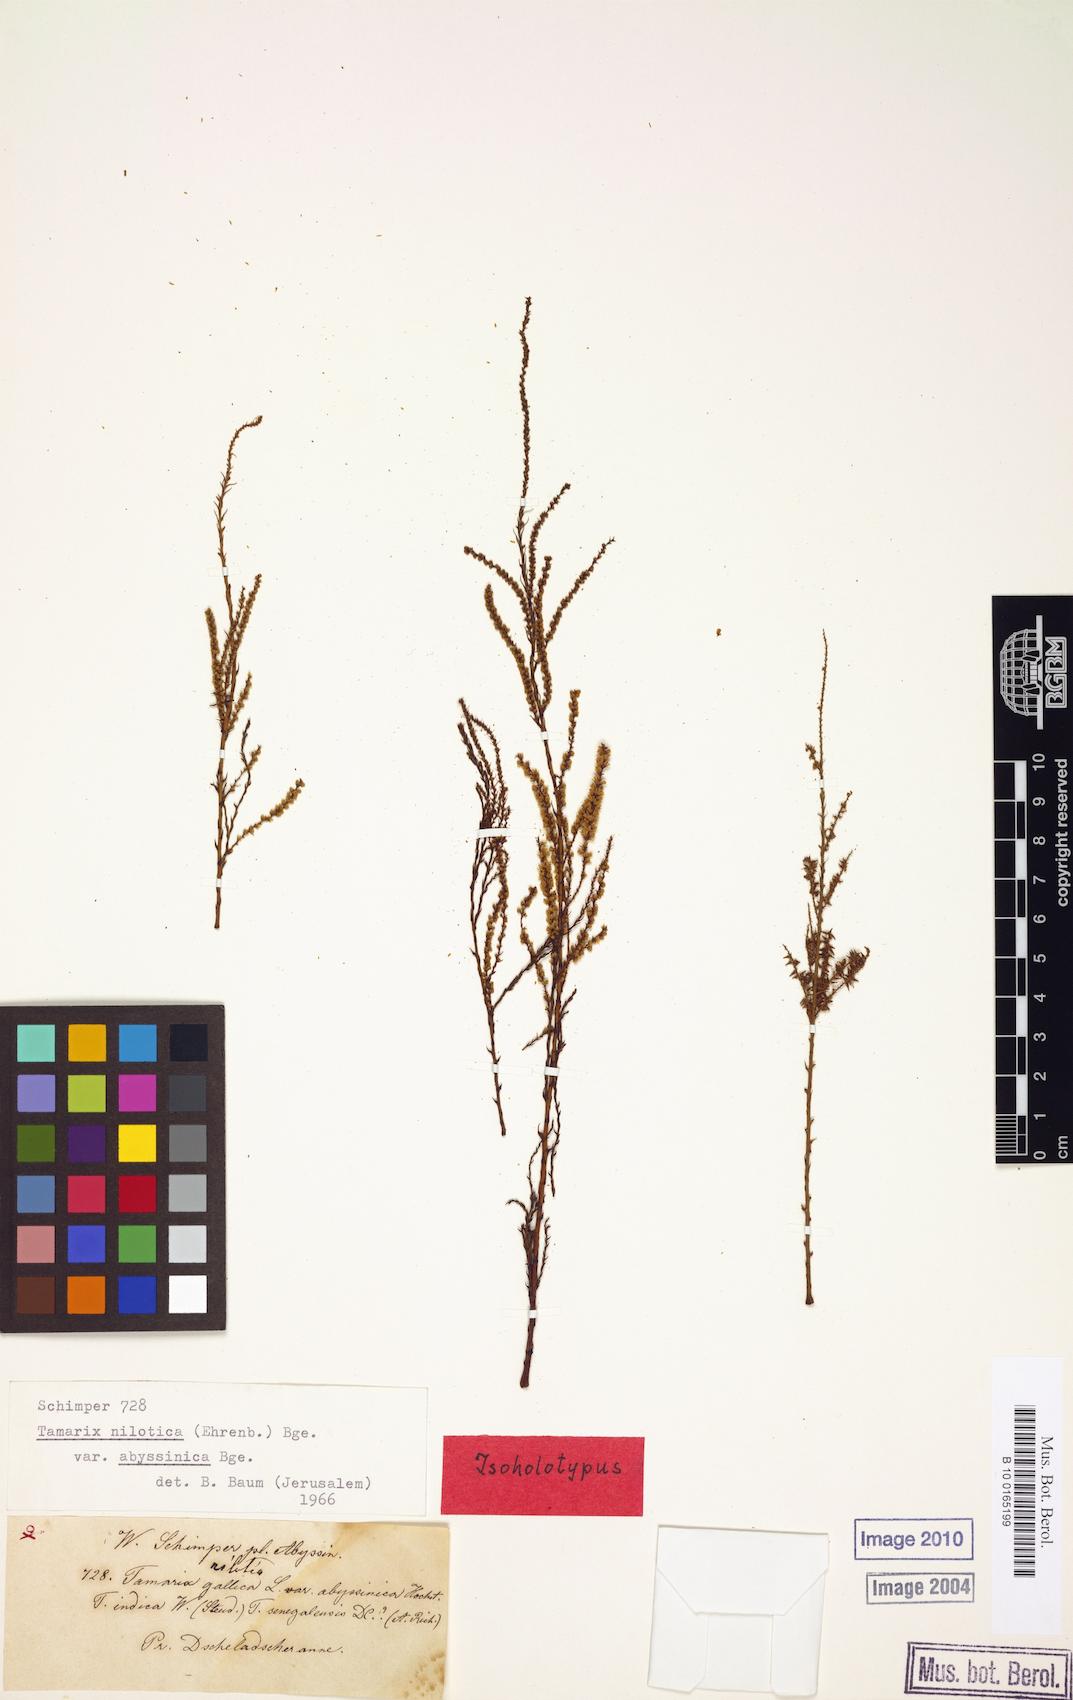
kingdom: Plantae
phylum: Tracheophyta
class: Magnoliopsida
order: Caryophyllales
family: Tamaricaceae
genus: Tamarix
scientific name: Tamarix nilotica
